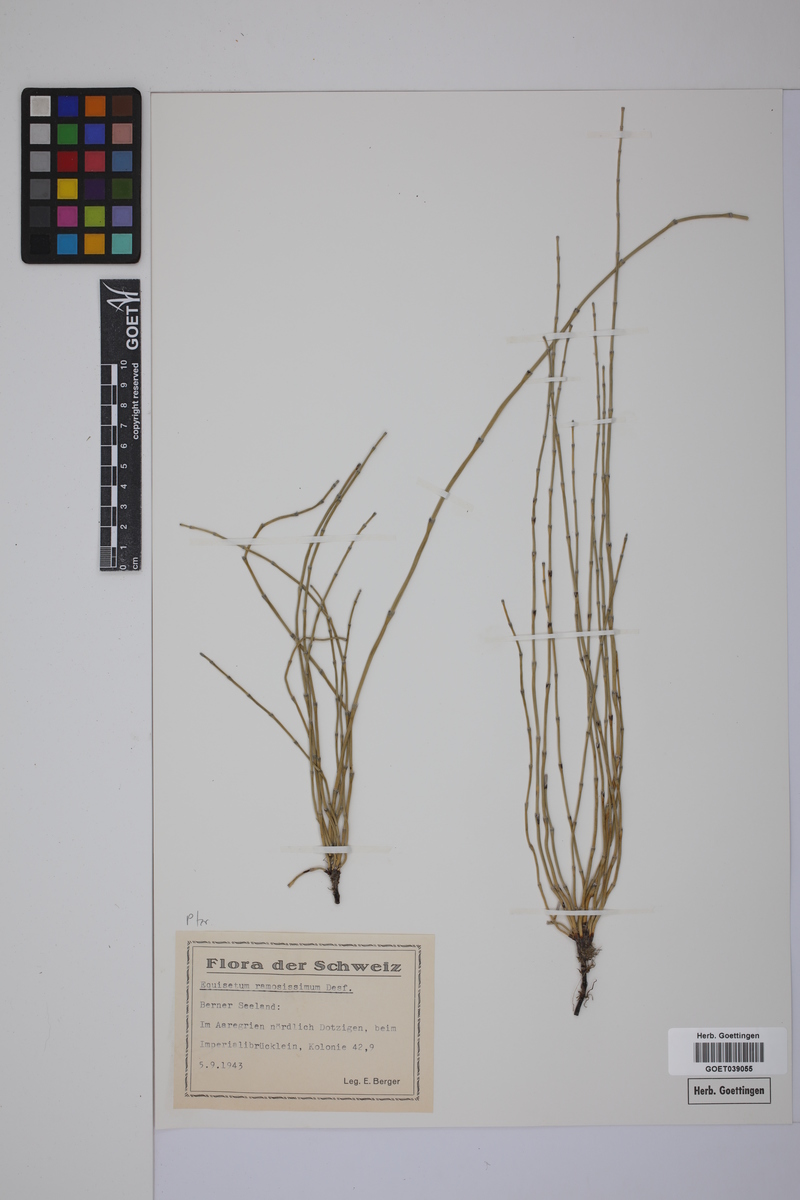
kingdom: Plantae
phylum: Tracheophyta
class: Polypodiopsida
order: Equisetales
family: Equisetaceae
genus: Equisetum
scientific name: Equisetum giganteum
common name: Giant horsetail
